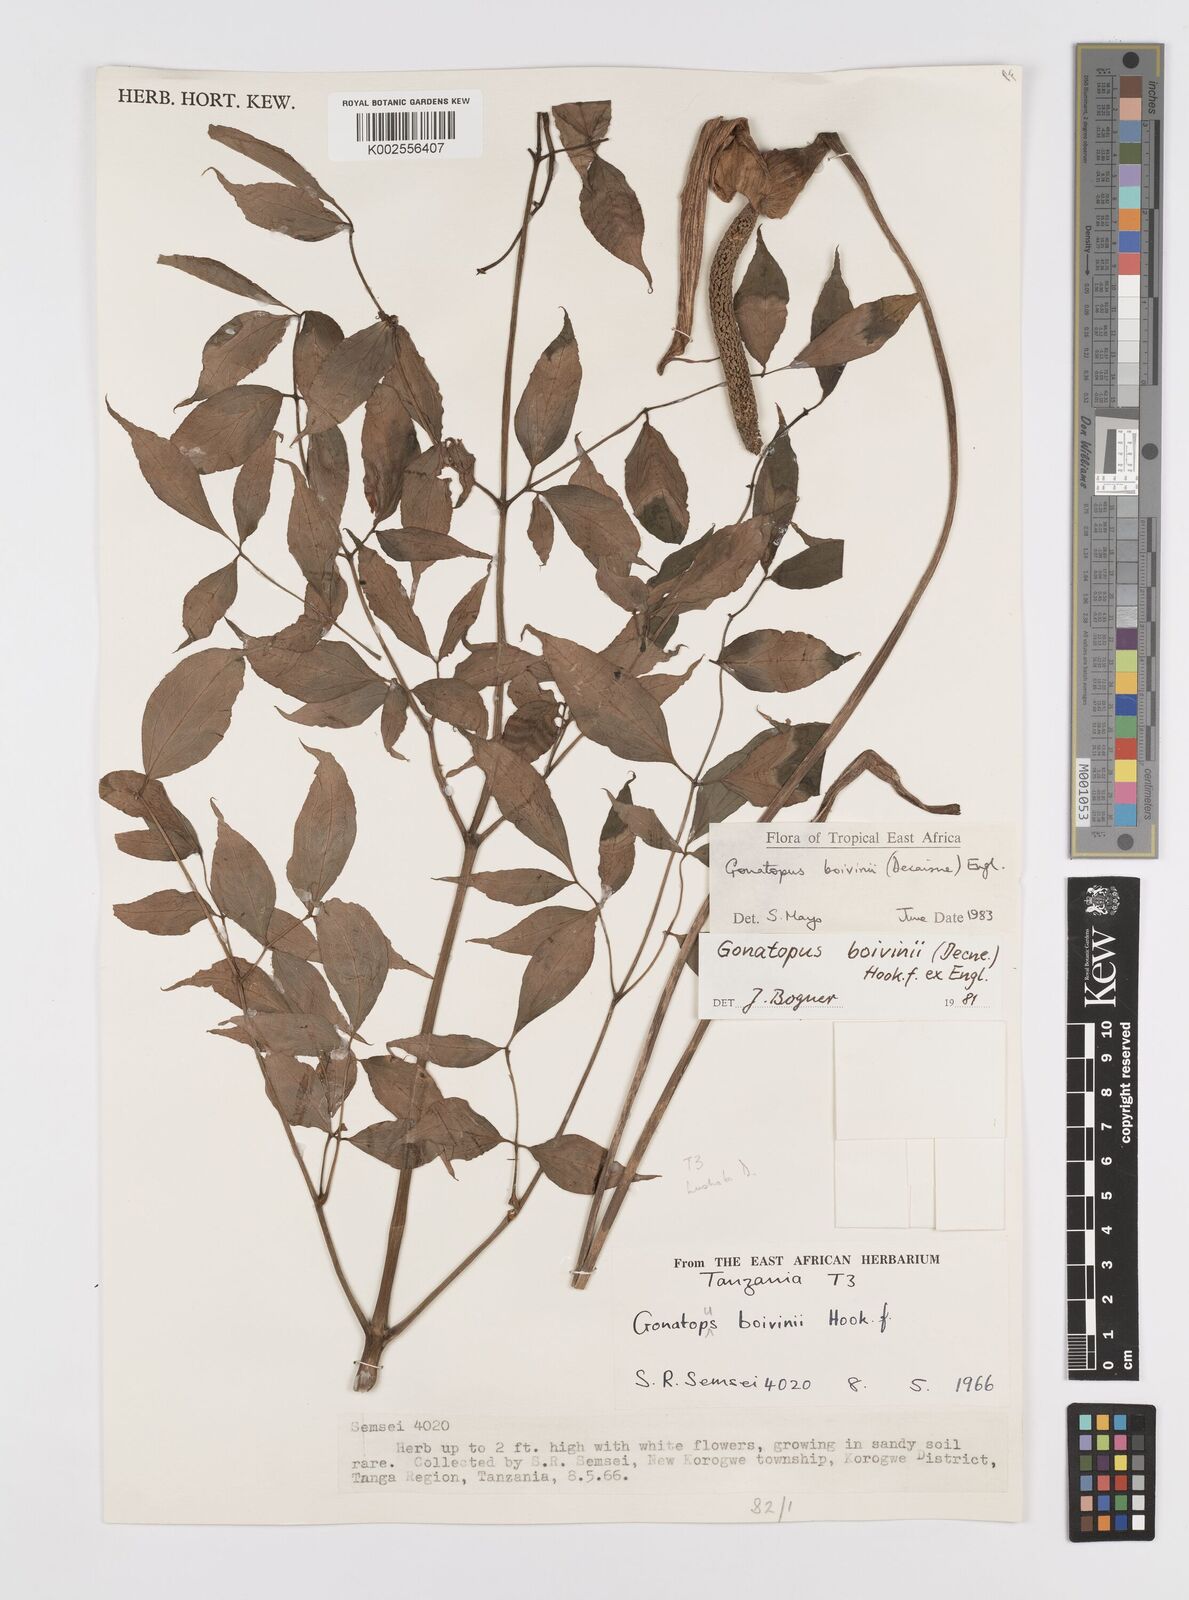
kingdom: Plantae
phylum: Tracheophyta
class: Liliopsida
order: Alismatales
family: Araceae
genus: Gonatopus
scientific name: Gonatopus boivinii
